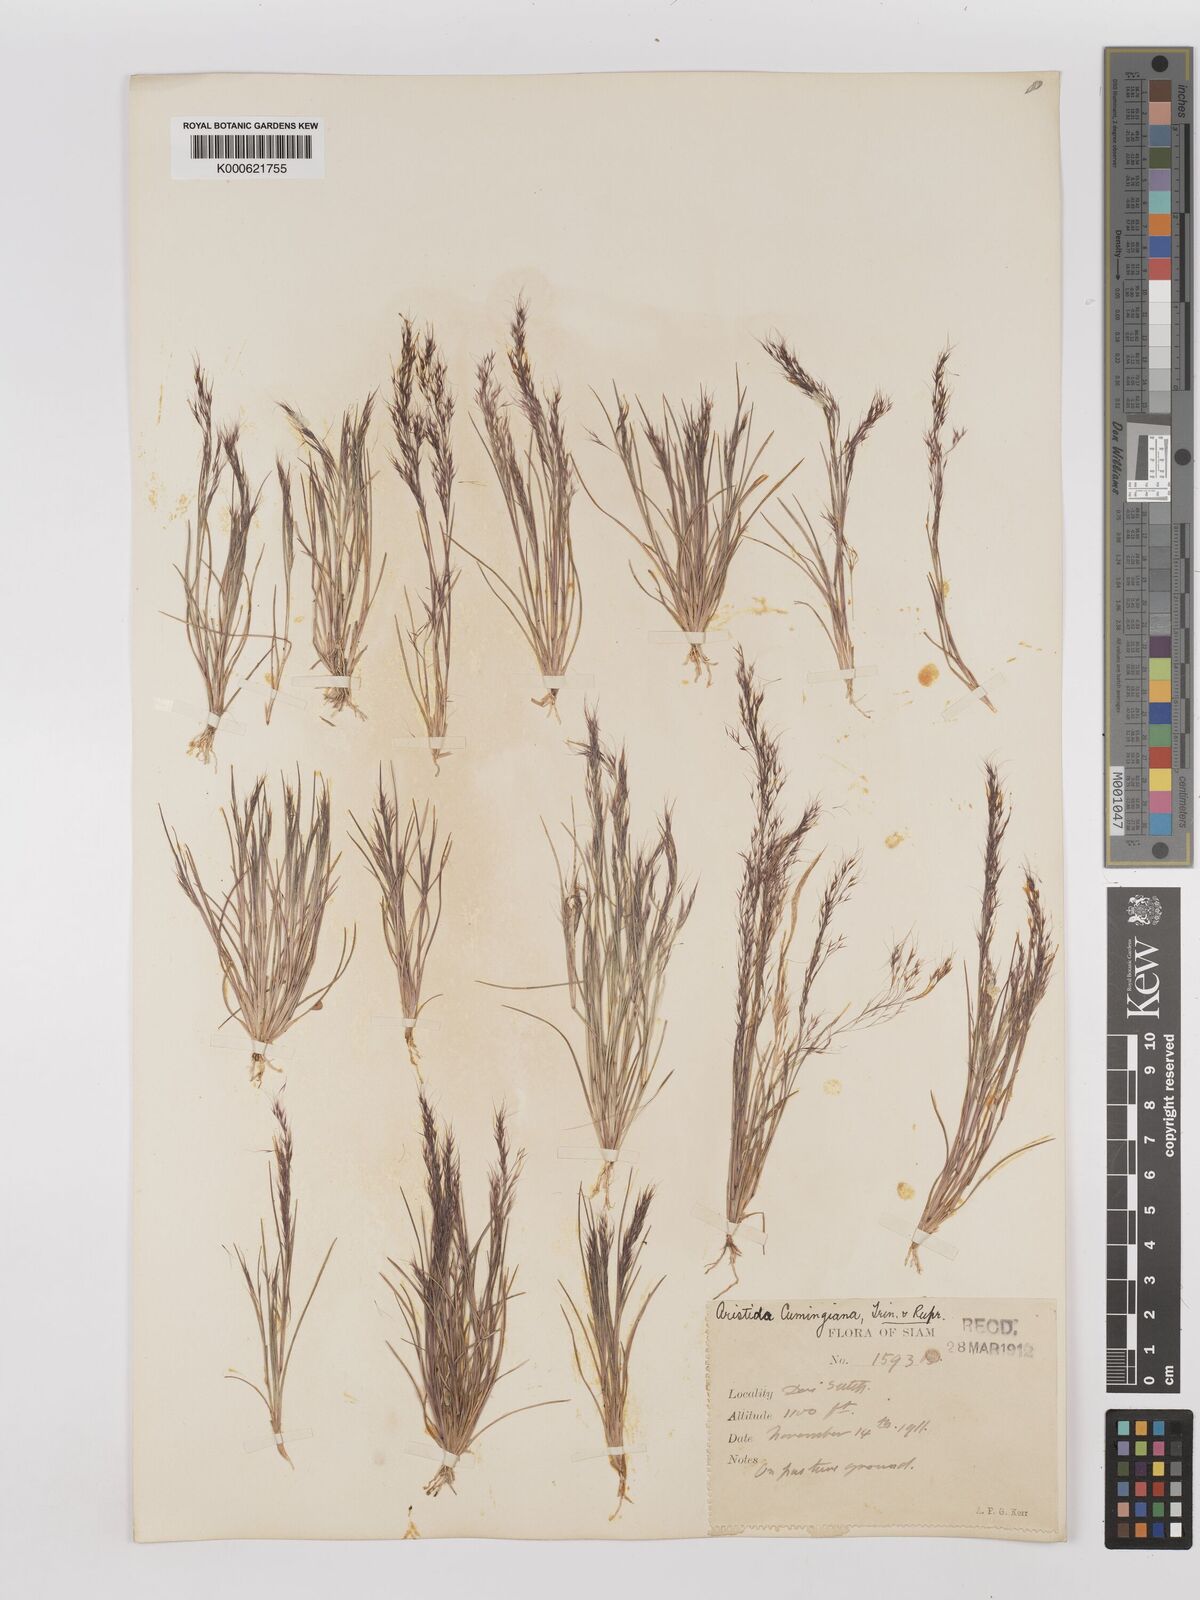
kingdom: Plantae
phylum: Tracheophyta
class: Liliopsida
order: Poales
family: Poaceae
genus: Aristida
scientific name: Aristida cumingiana
